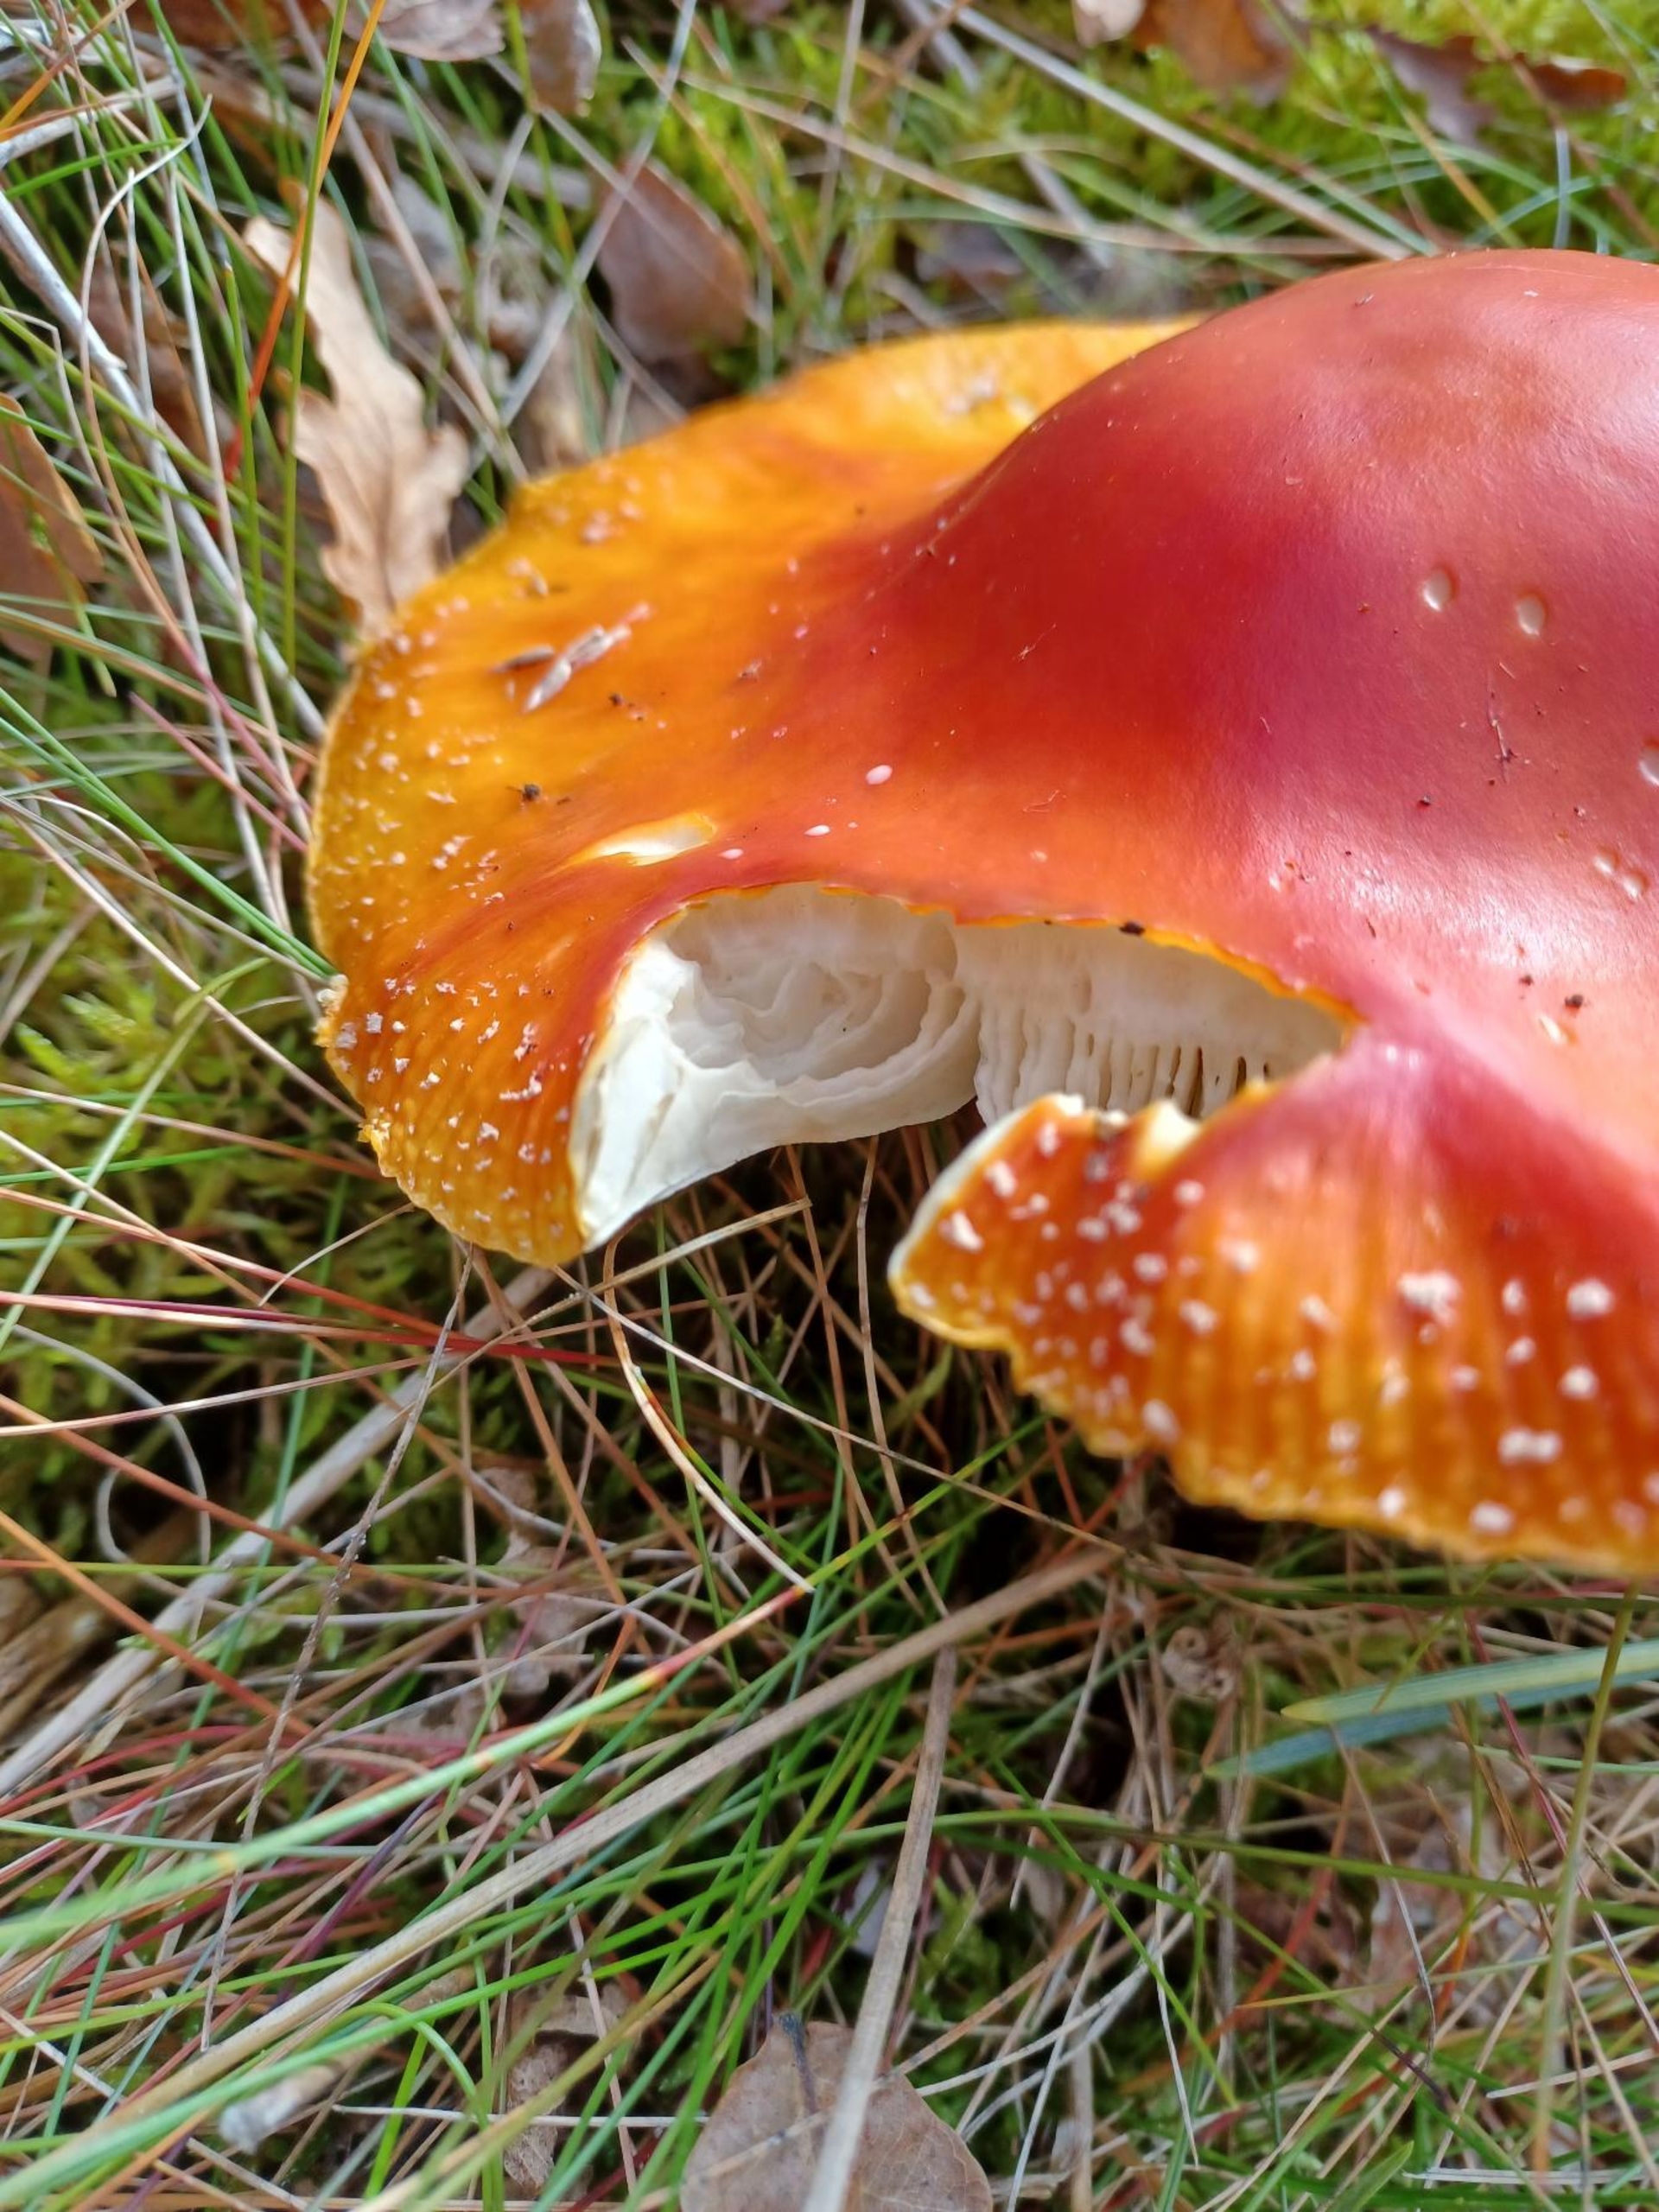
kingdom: Fungi
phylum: Basidiomycota
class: Agaricomycetes
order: Agaricales
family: Amanitaceae
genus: Amanita
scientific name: Amanita muscaria
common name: Rød fluesvamp
